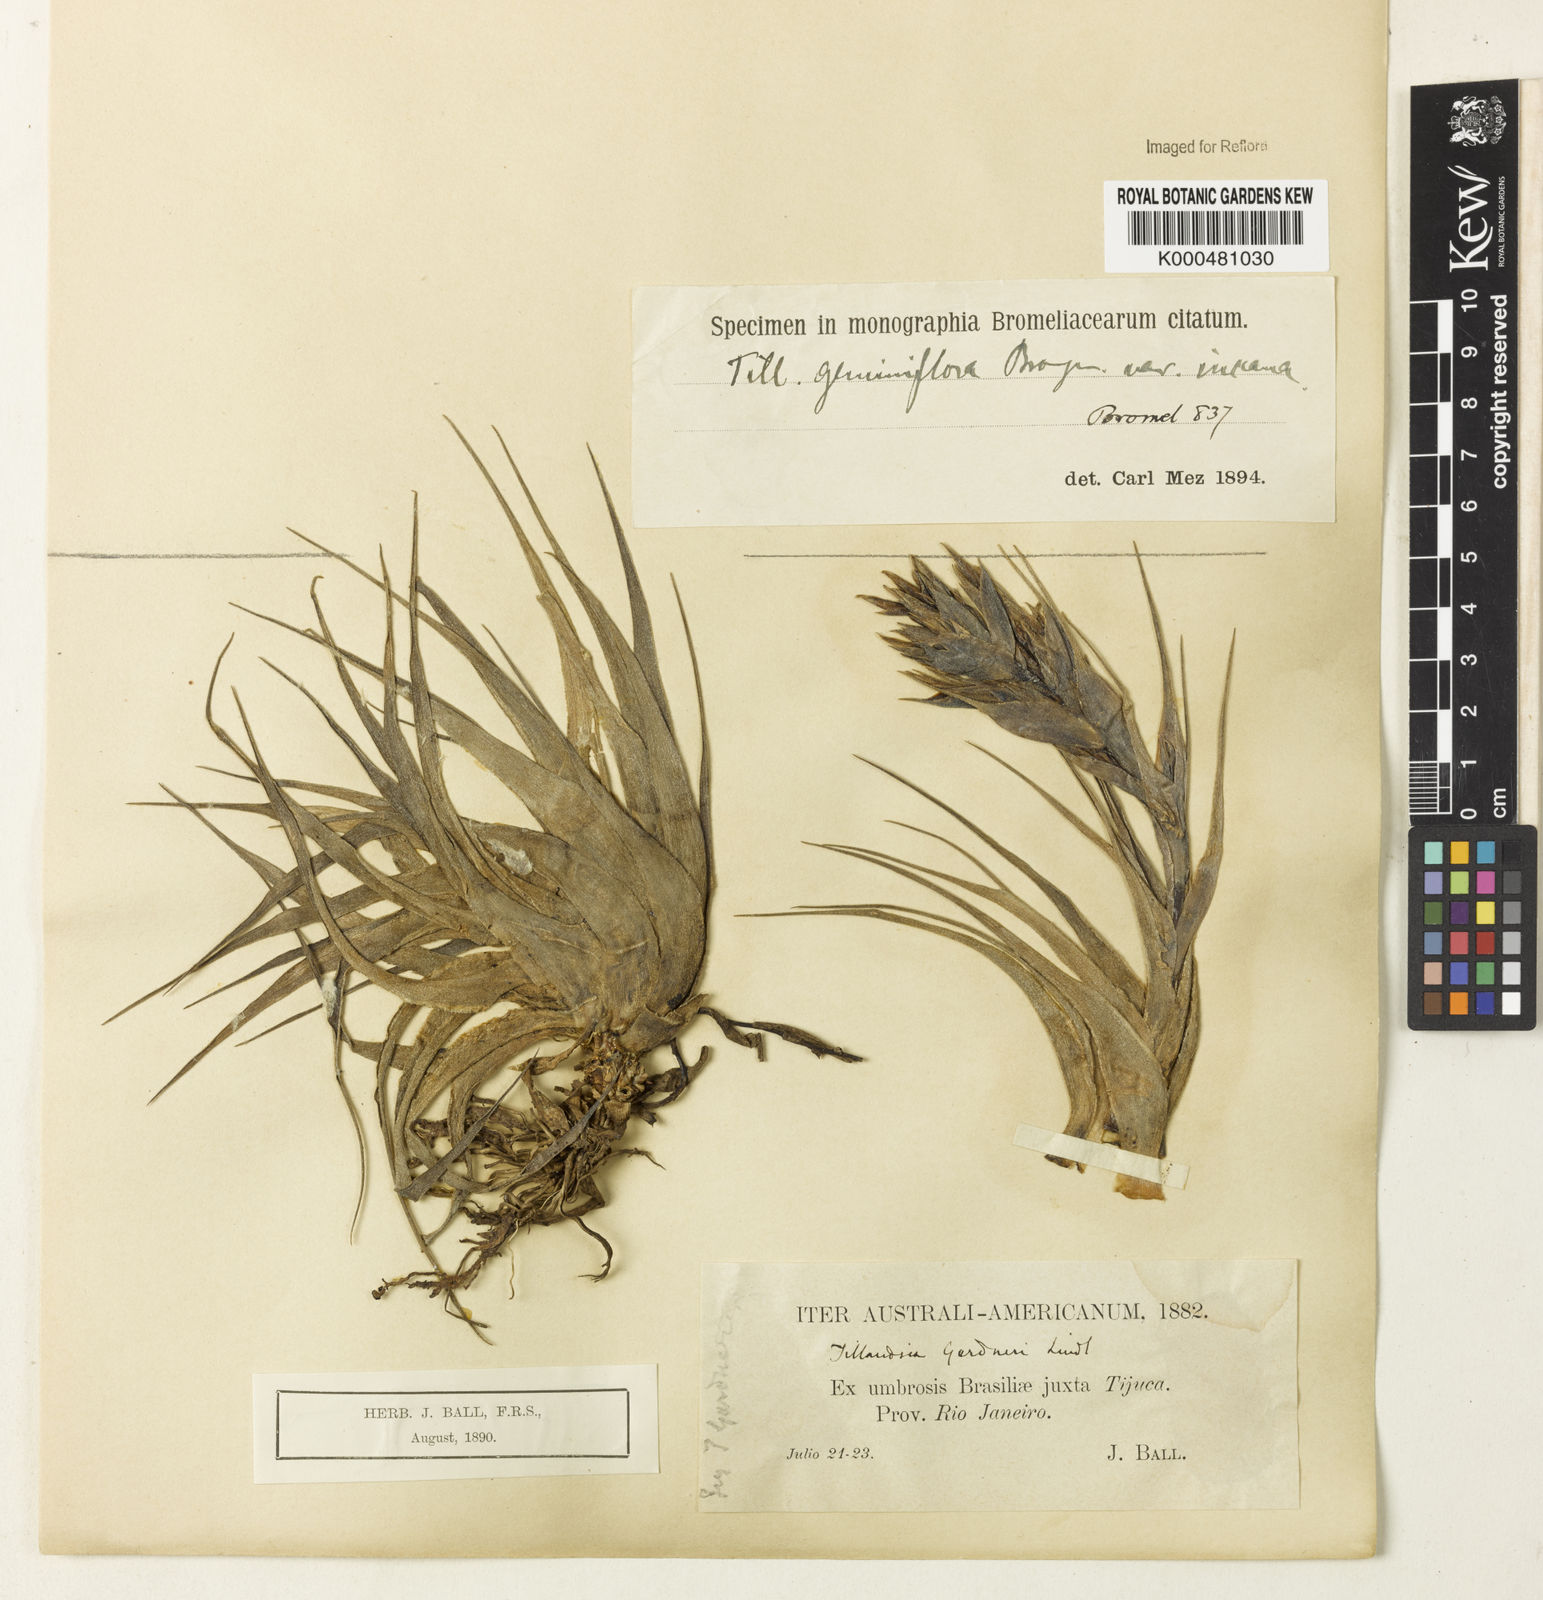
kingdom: Plantae
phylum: Tracheophyta
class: Liliopsida
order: Poales
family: Bromeliaceae
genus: Tillandsia
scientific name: Tillandsia geminiflora
